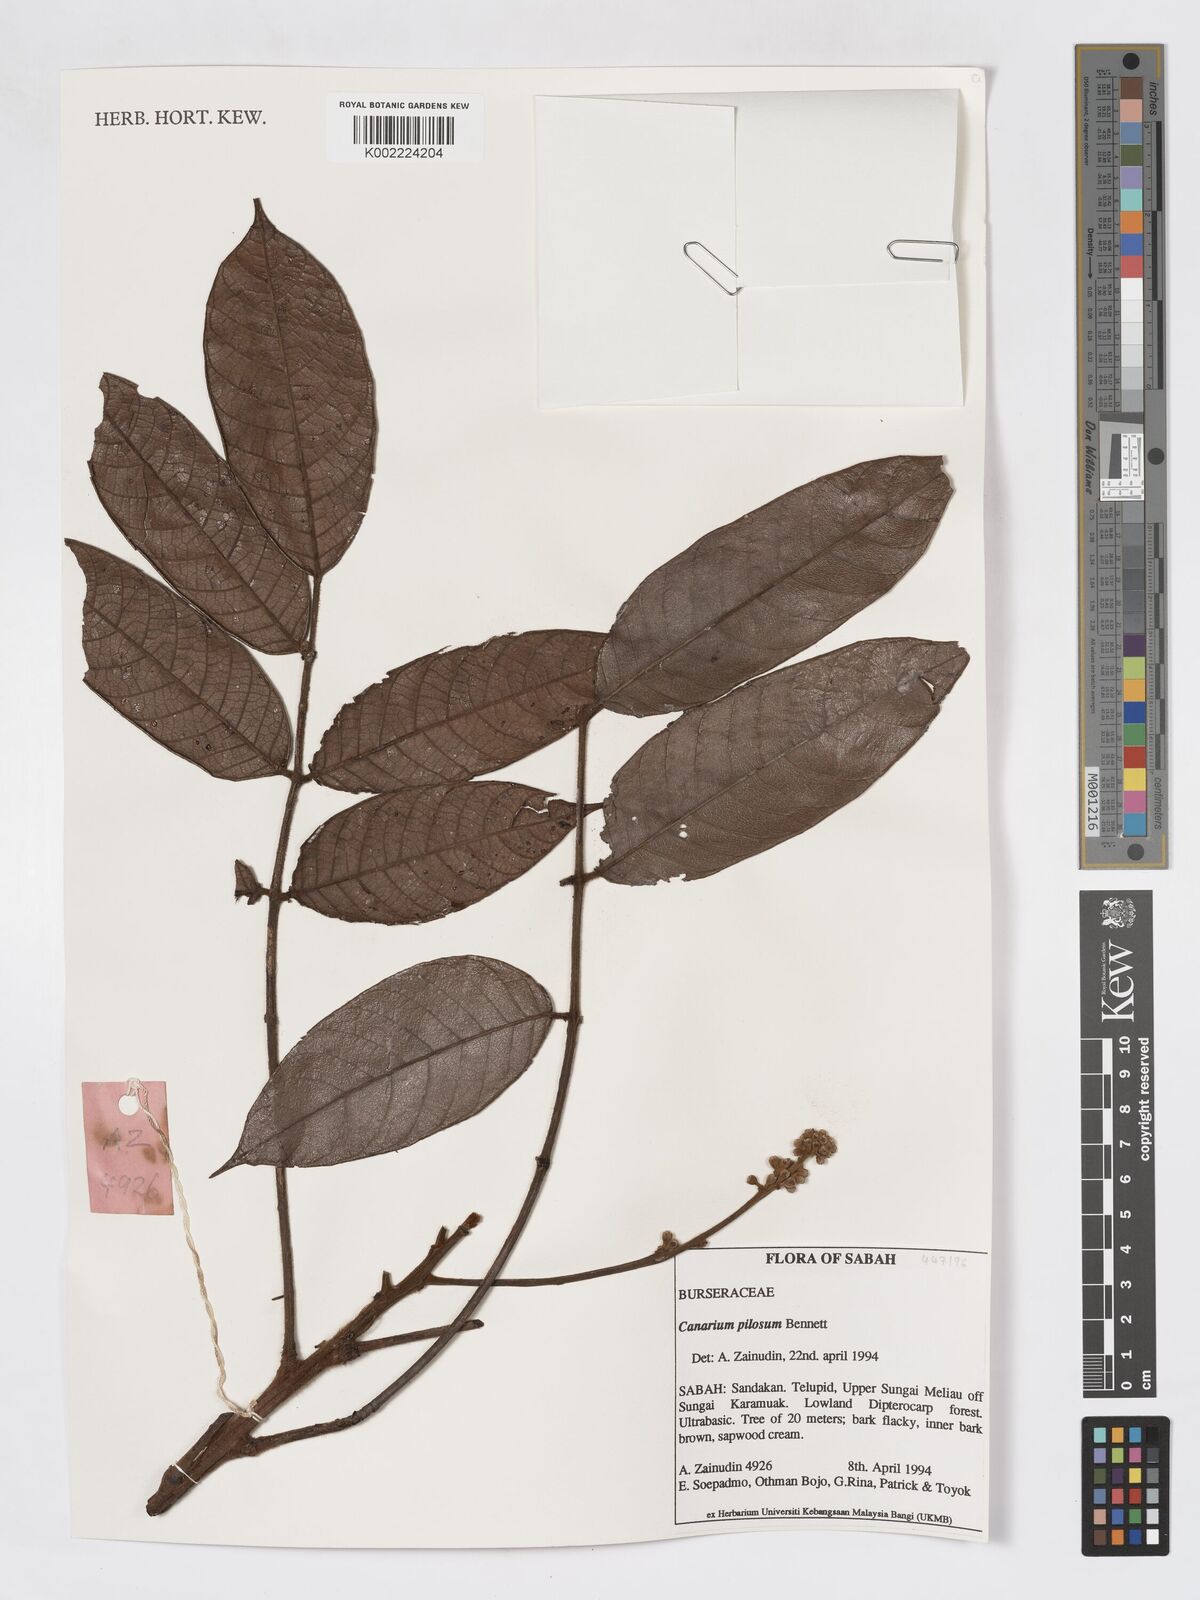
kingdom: Plantae
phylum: Tracheophyta
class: Magnoliopsida
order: Sapindales
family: Burseraceae
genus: Canarium
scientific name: Canarium pilosum
